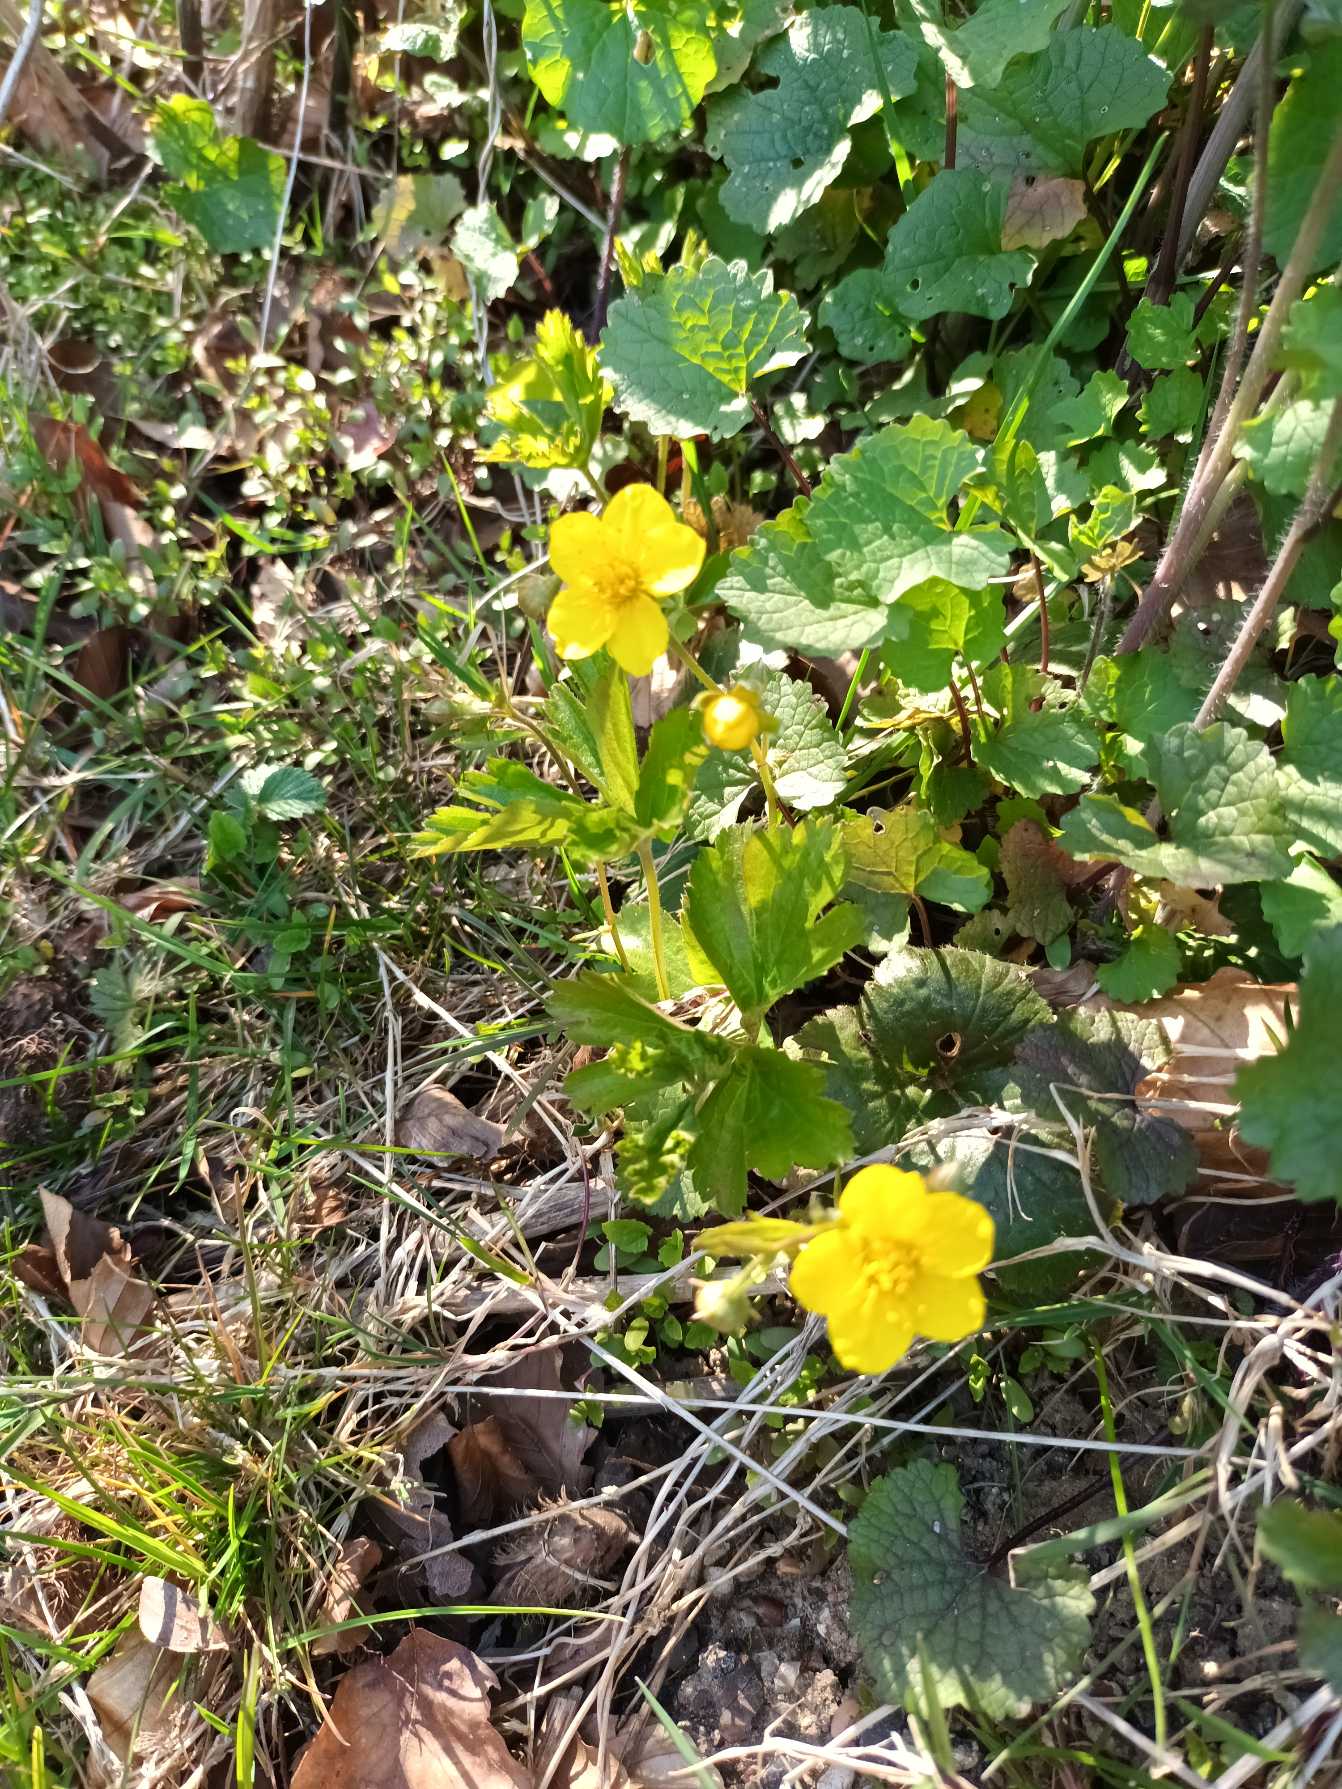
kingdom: Plantae
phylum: Tracheophyta
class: Magnoliopsida
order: Rosales
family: Rosaceae
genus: Geum
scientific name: Geum ternatum
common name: Krybende guldjordbær
